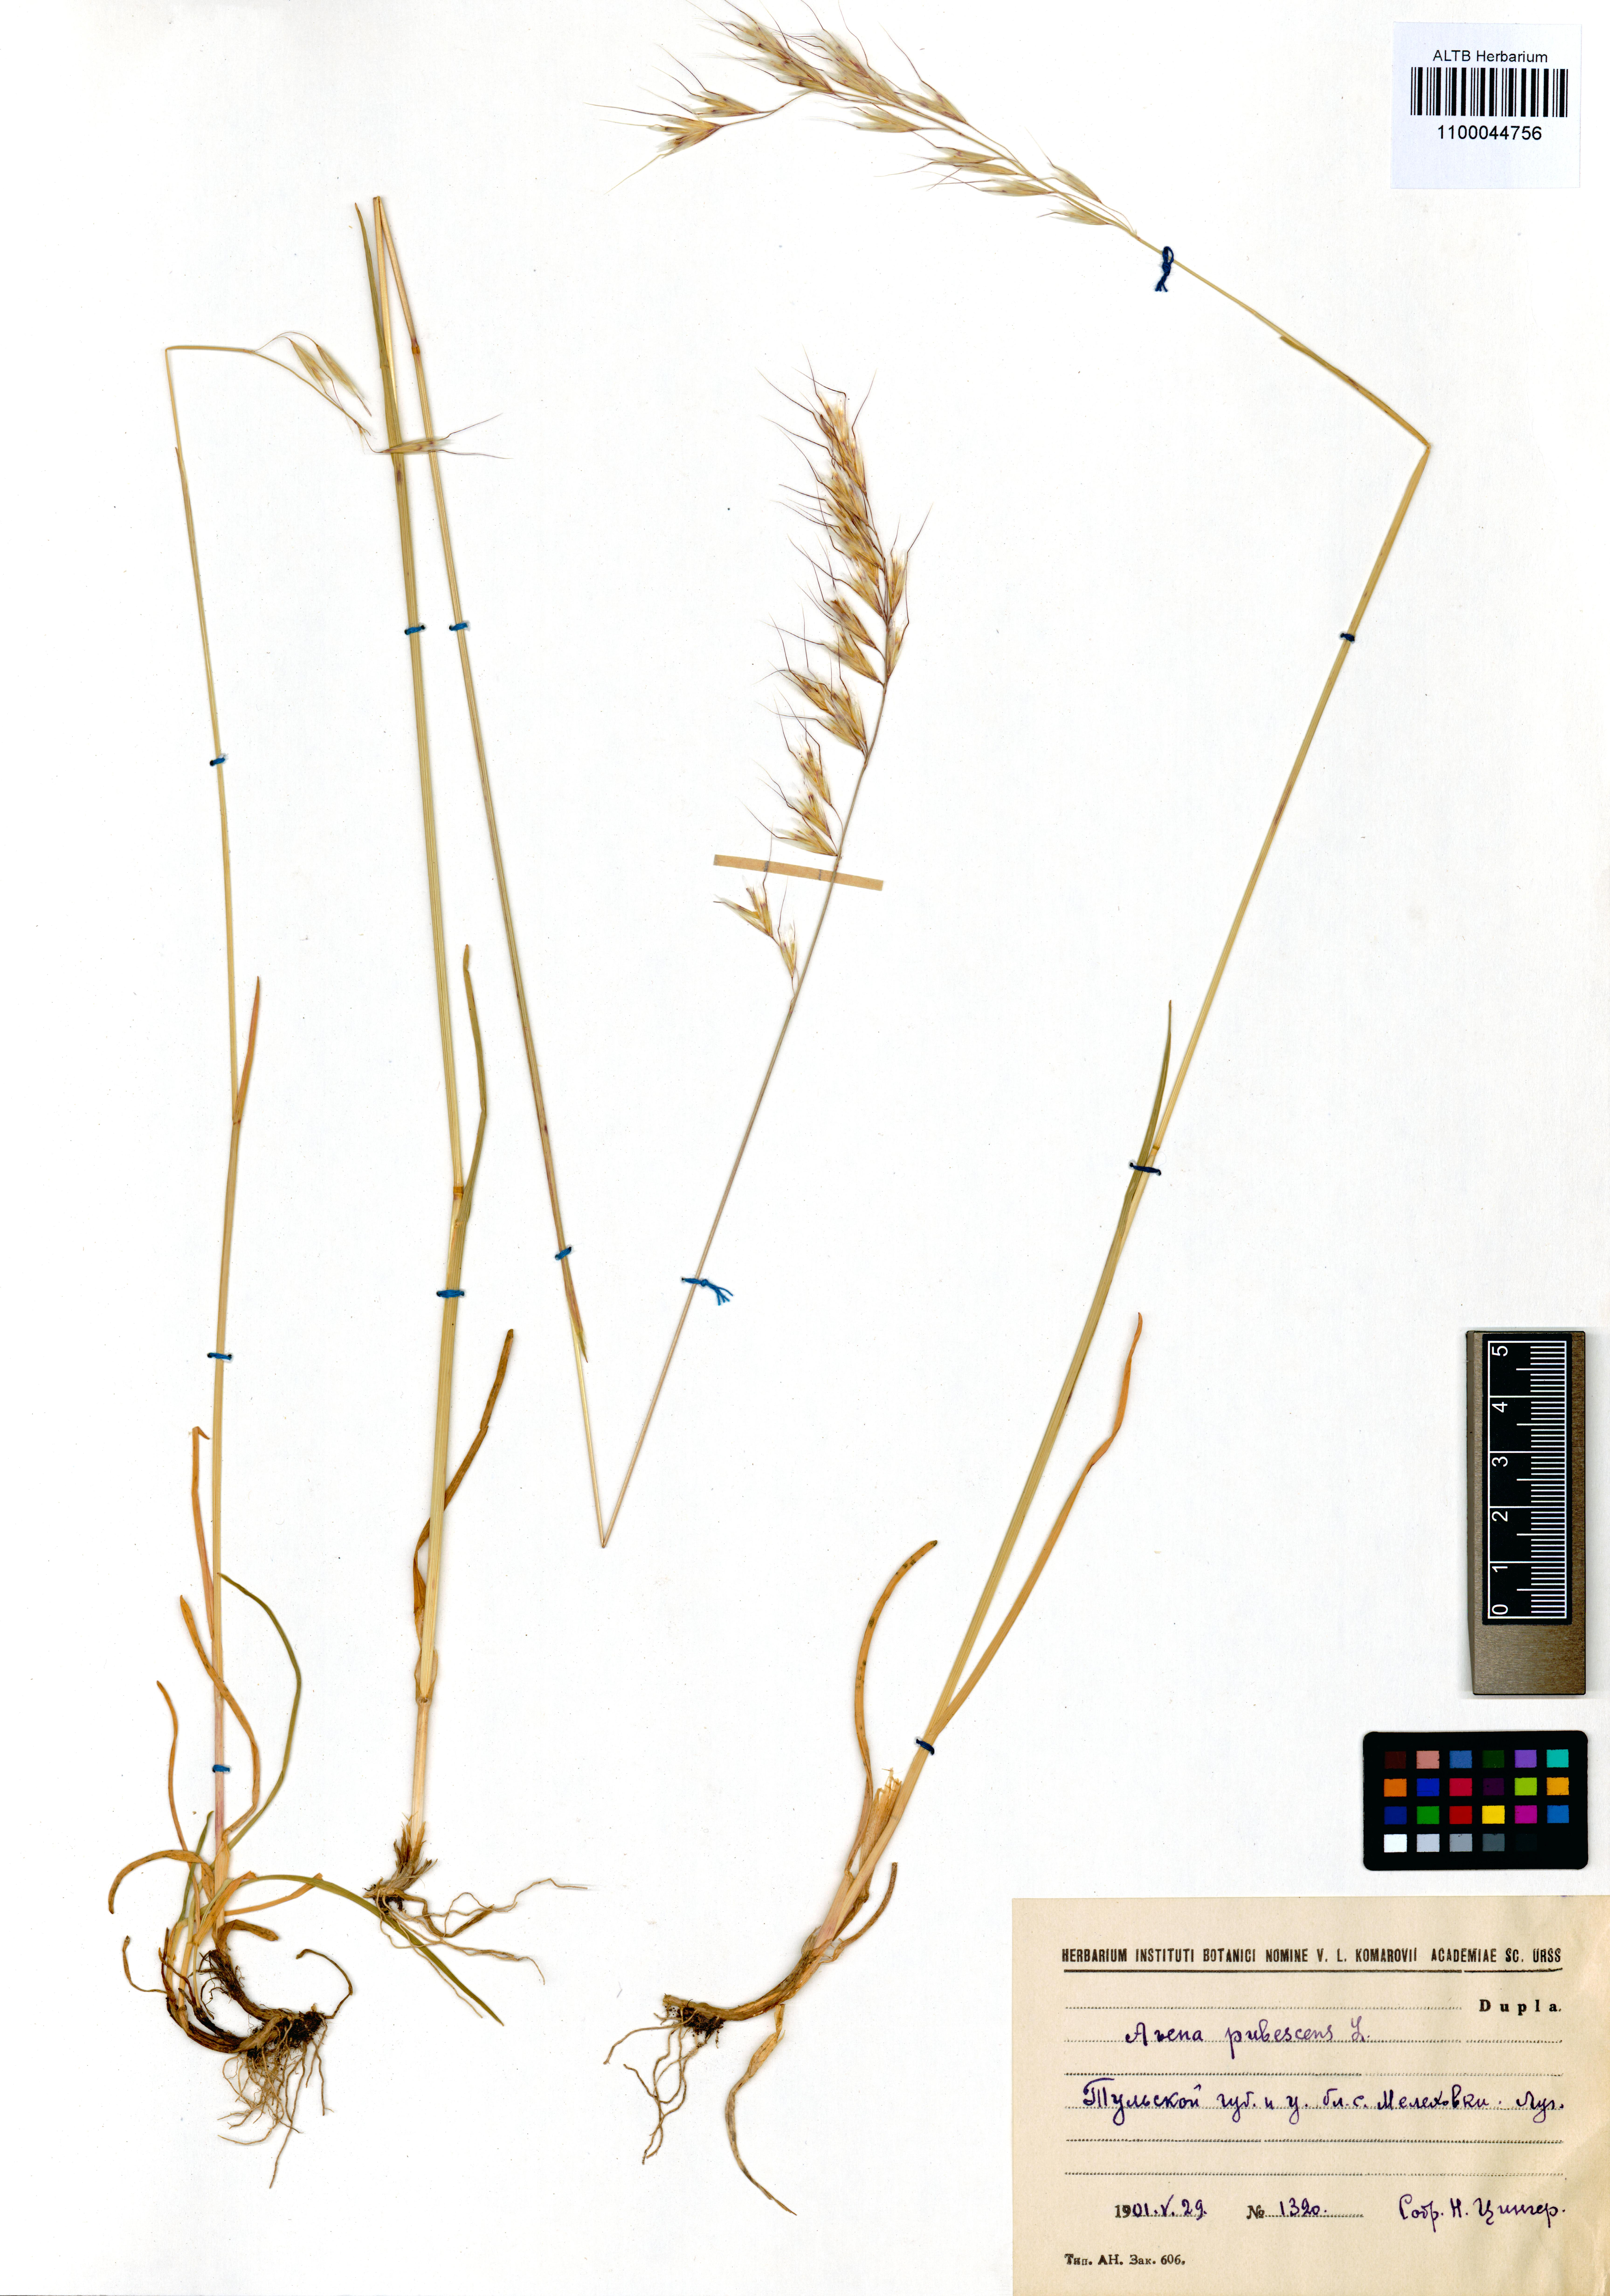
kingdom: Plantae
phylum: Tracheophyta
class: Liliopsida
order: Poales
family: Poaceae
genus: Avenula
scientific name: Avenula pubescens
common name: Downy alpine oatgrass
